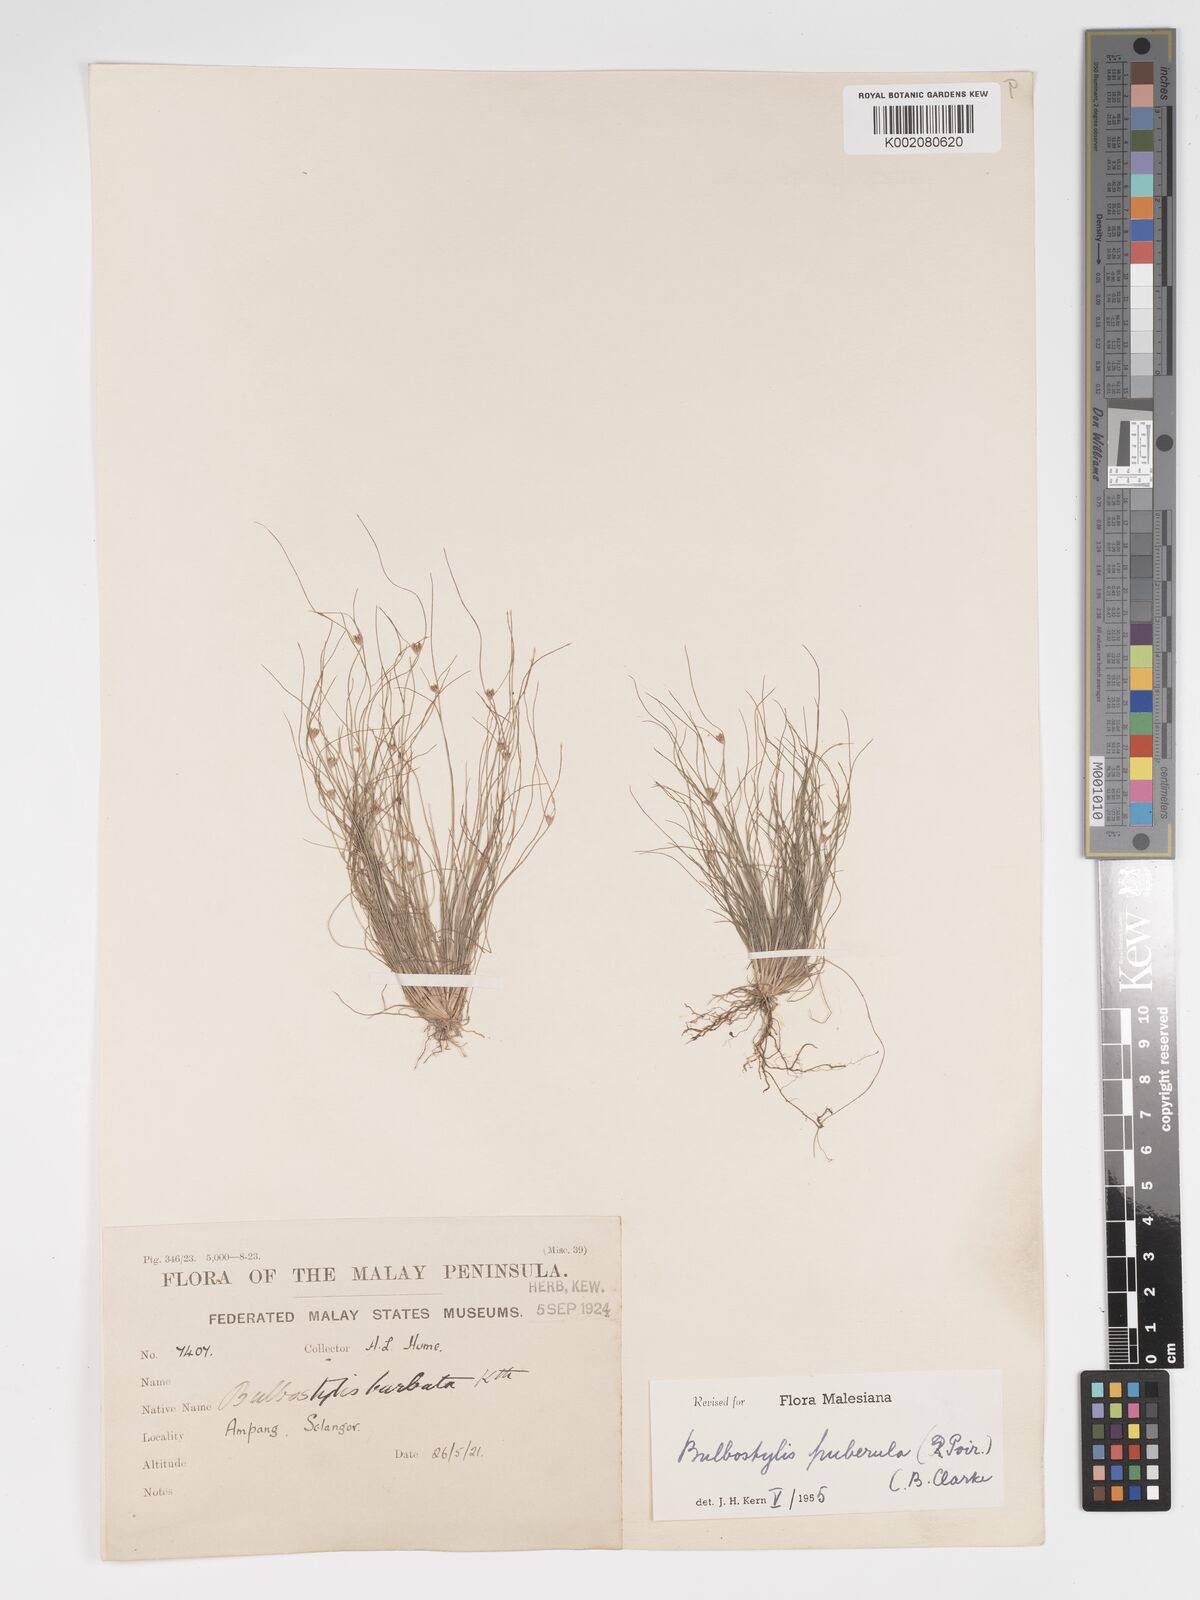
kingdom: Plantae
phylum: Tracheophyta
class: Liliopsida
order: Poales
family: Cyperaceae
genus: Bulbostylis
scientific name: Bulbostylis thouarsii
